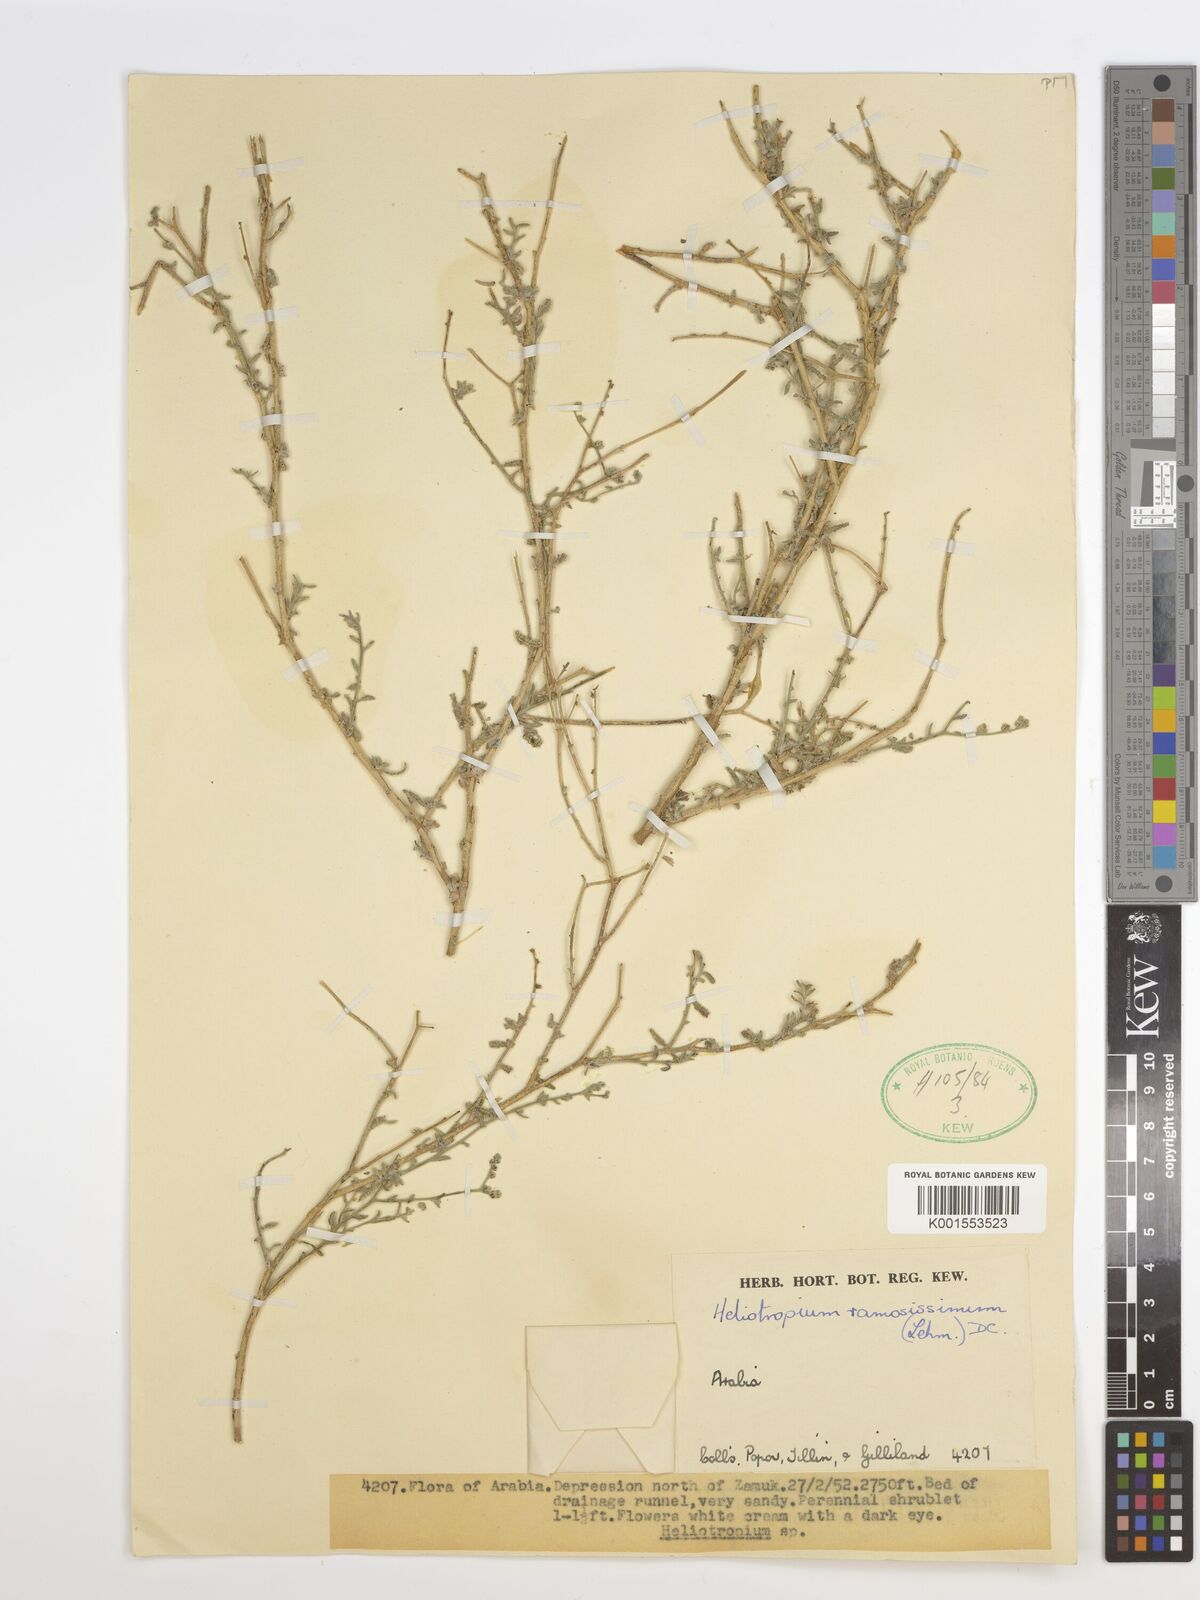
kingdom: Plantae
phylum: Tracheophyta
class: Magnoliopsida
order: Boraginales
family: Heliotropiaceae
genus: Heliotropium
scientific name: Heliotropium ramosissimum
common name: Wavy heliotrope
